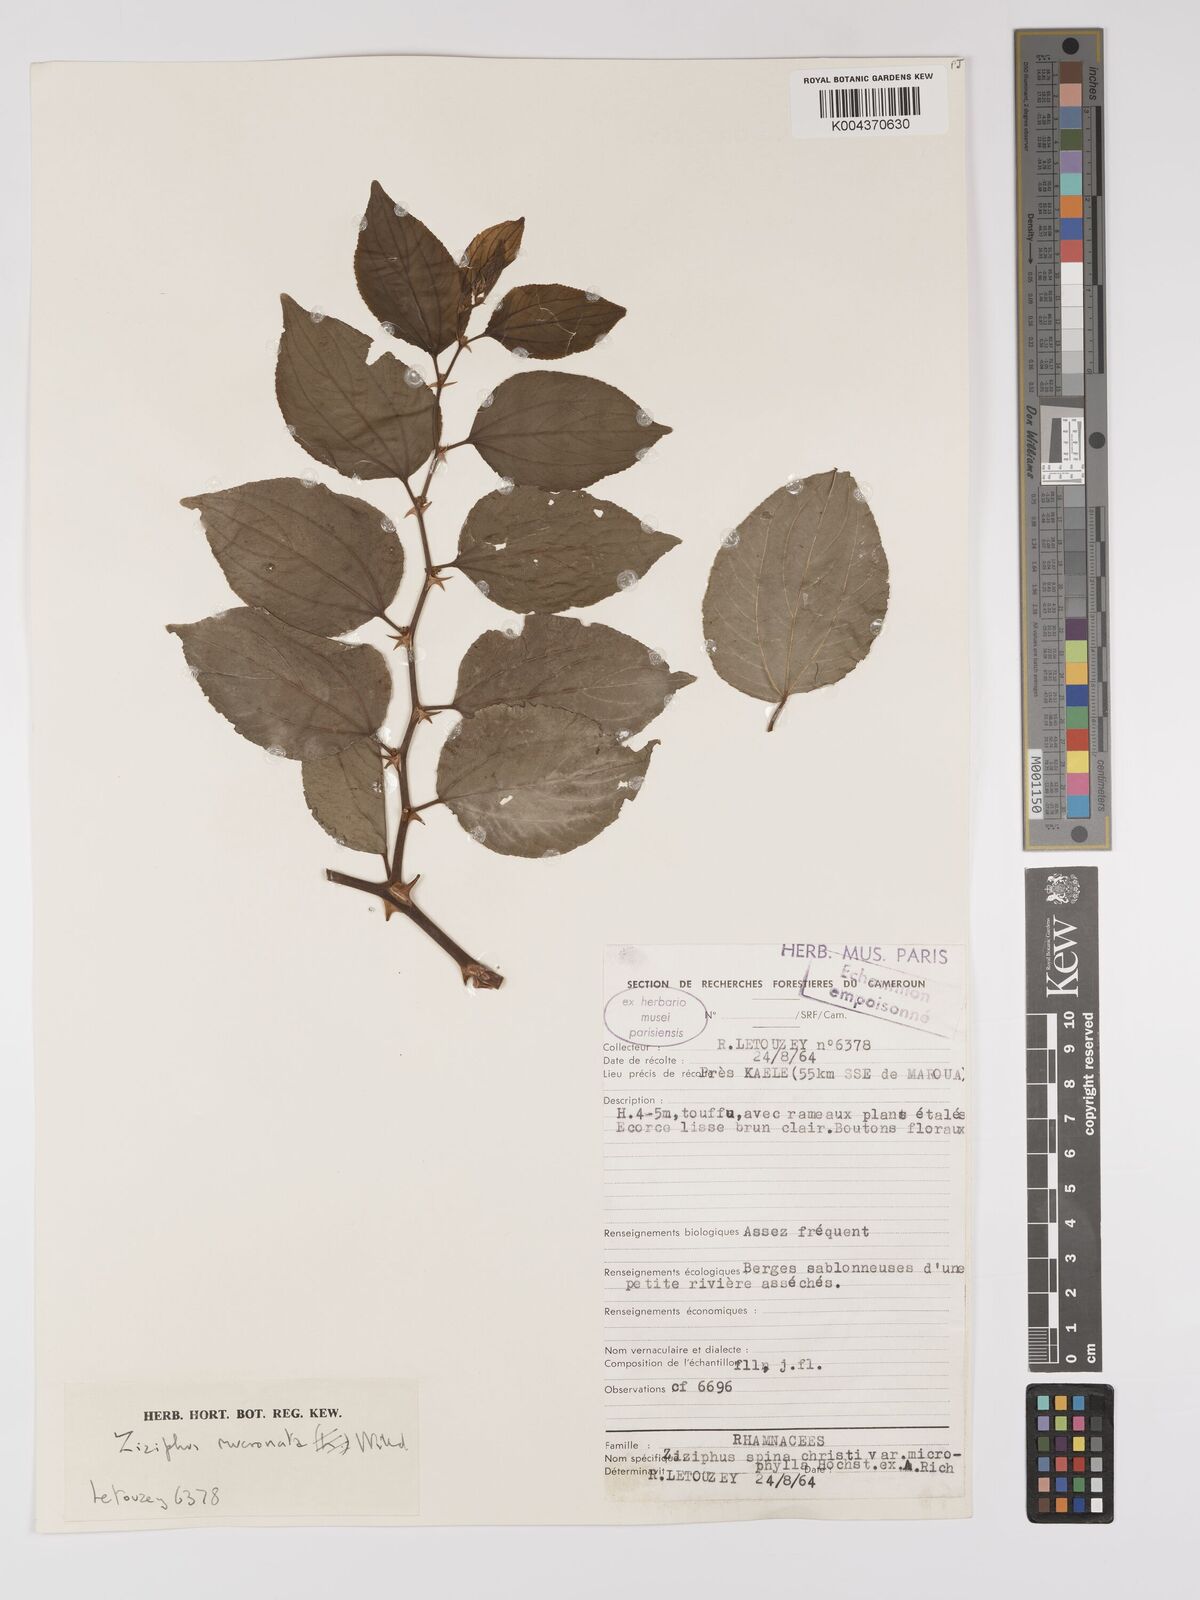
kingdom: Plantae
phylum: Tracheophyta
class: Magnoliopsida
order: Rosales
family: Rhamnaceae
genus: Ziziphus
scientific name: Ziziphus mucronata
